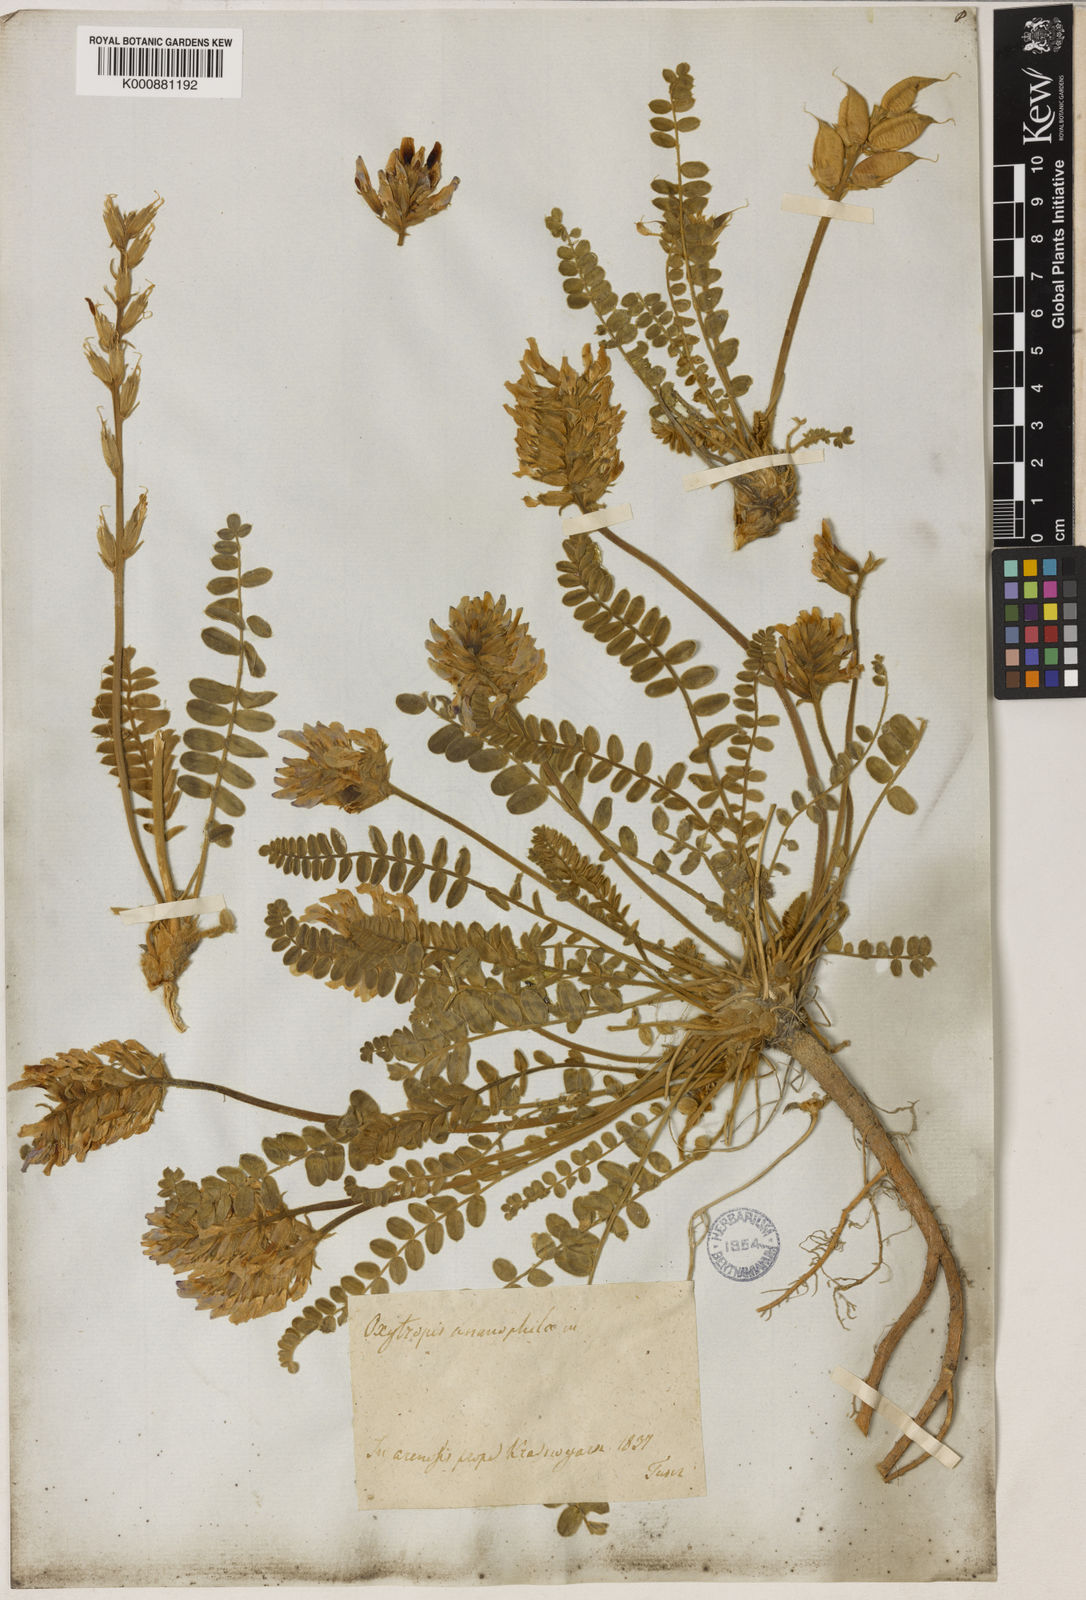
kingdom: Plantae
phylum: Tracheophyta
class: Magnoliopsida
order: Fabales
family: Fabaceae
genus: Oxytropis
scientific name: Oxytropis ammophila
